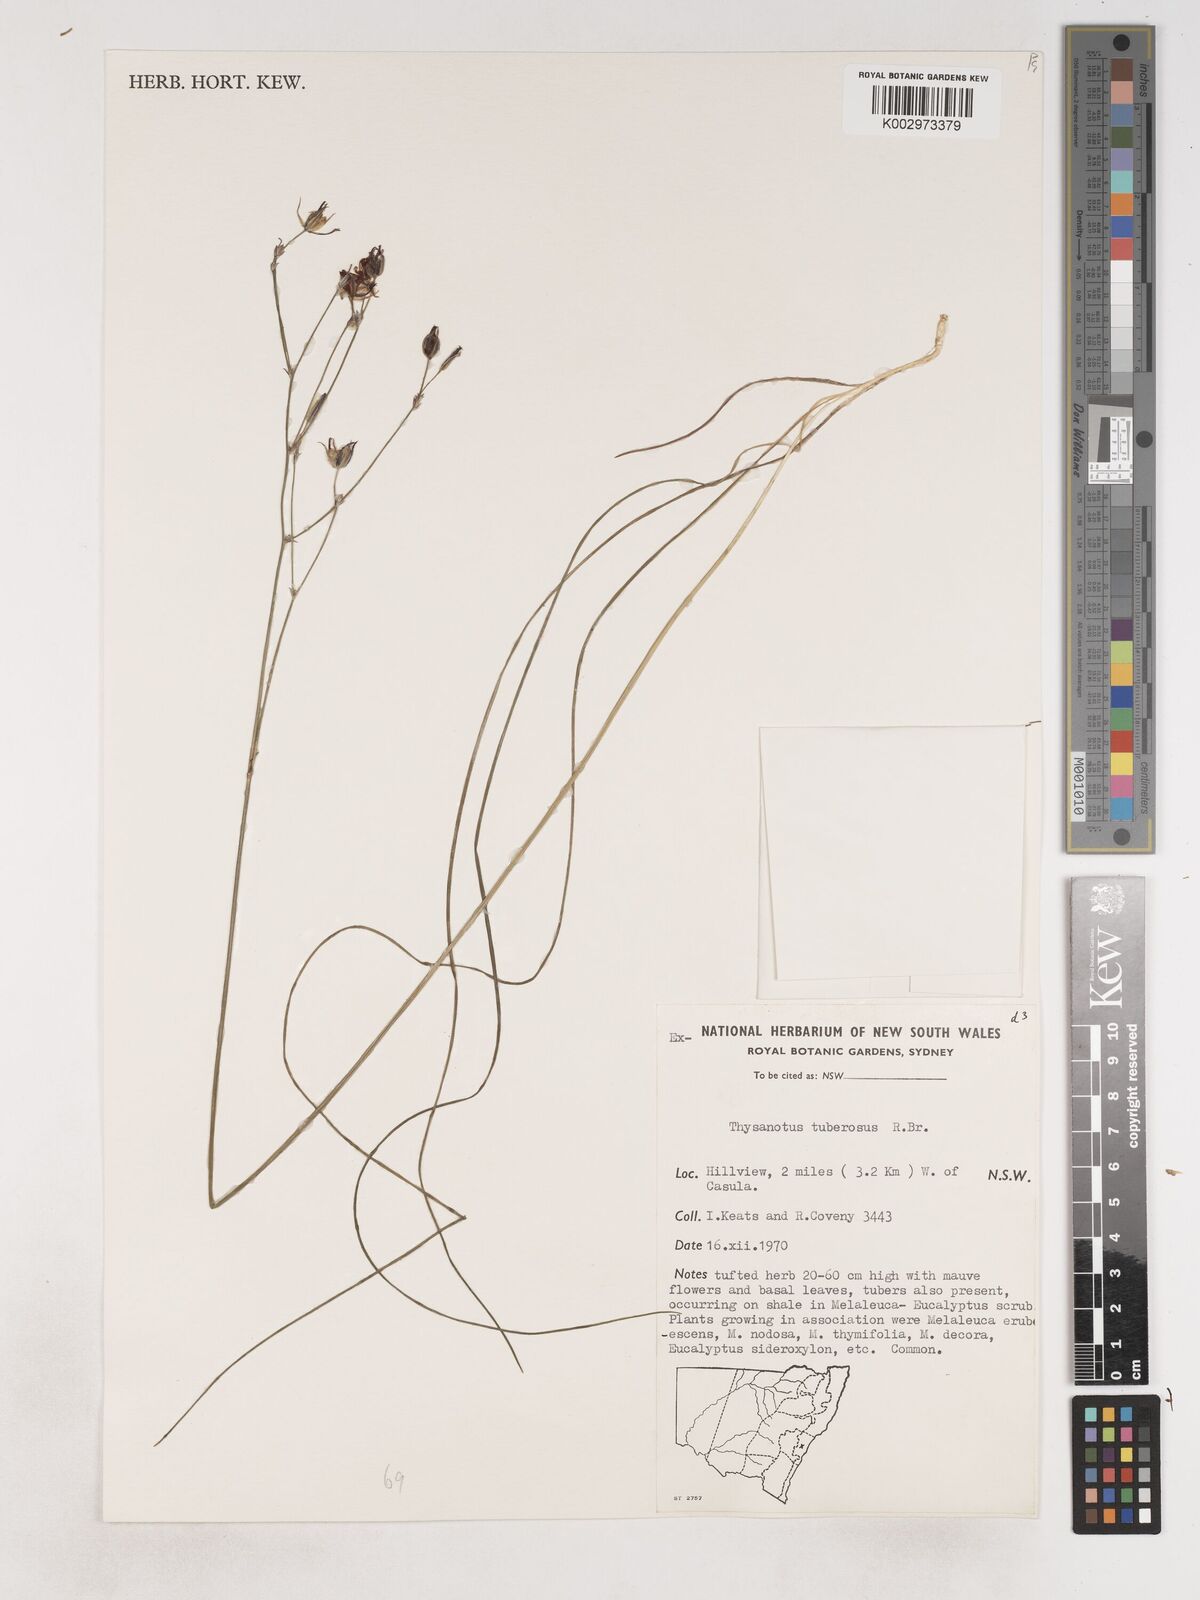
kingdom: Plantae
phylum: Tracheophyta
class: Liliopsida
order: Asparagales
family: Asparagaceae
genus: Thysanotus
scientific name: Thysanotus tuberosus
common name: Common fringed-lily
